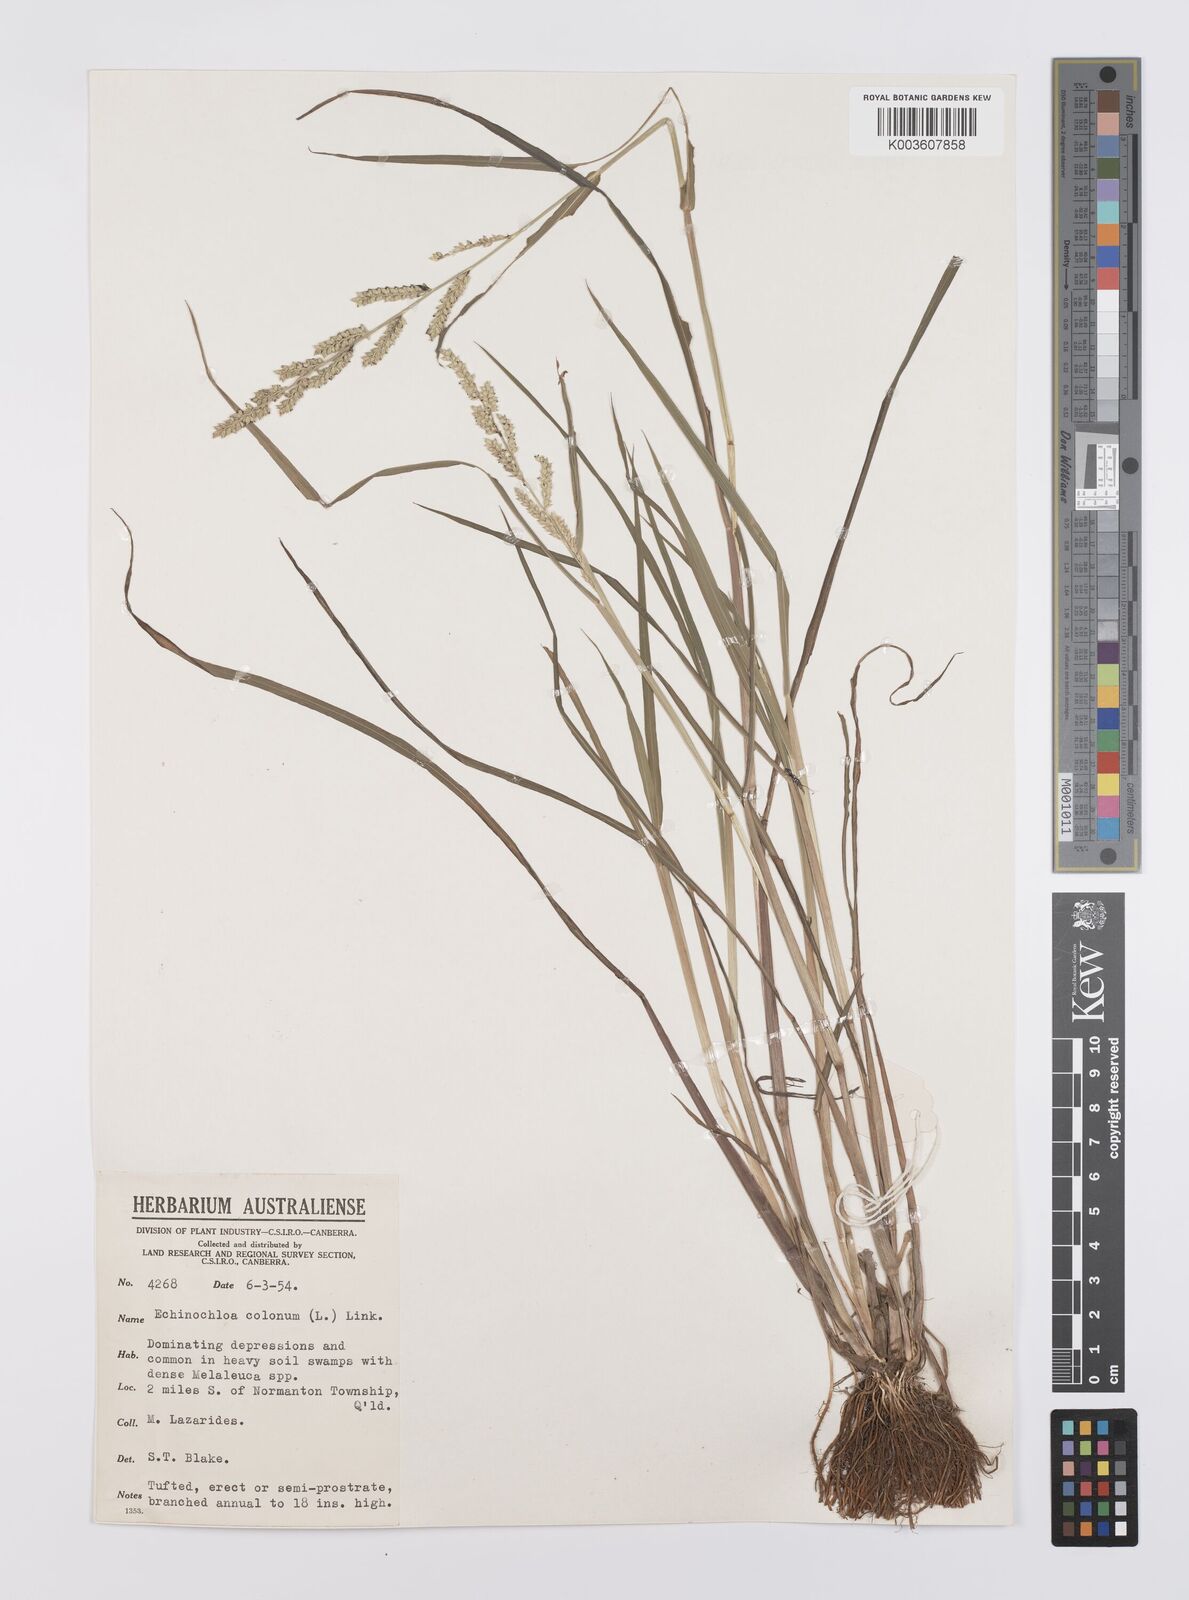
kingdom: Plantae
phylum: Tracheophyta
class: Liliopsida
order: Poales
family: Poaceae
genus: Echinochloa
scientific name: Echinochloa colonum
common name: Jungle rice
